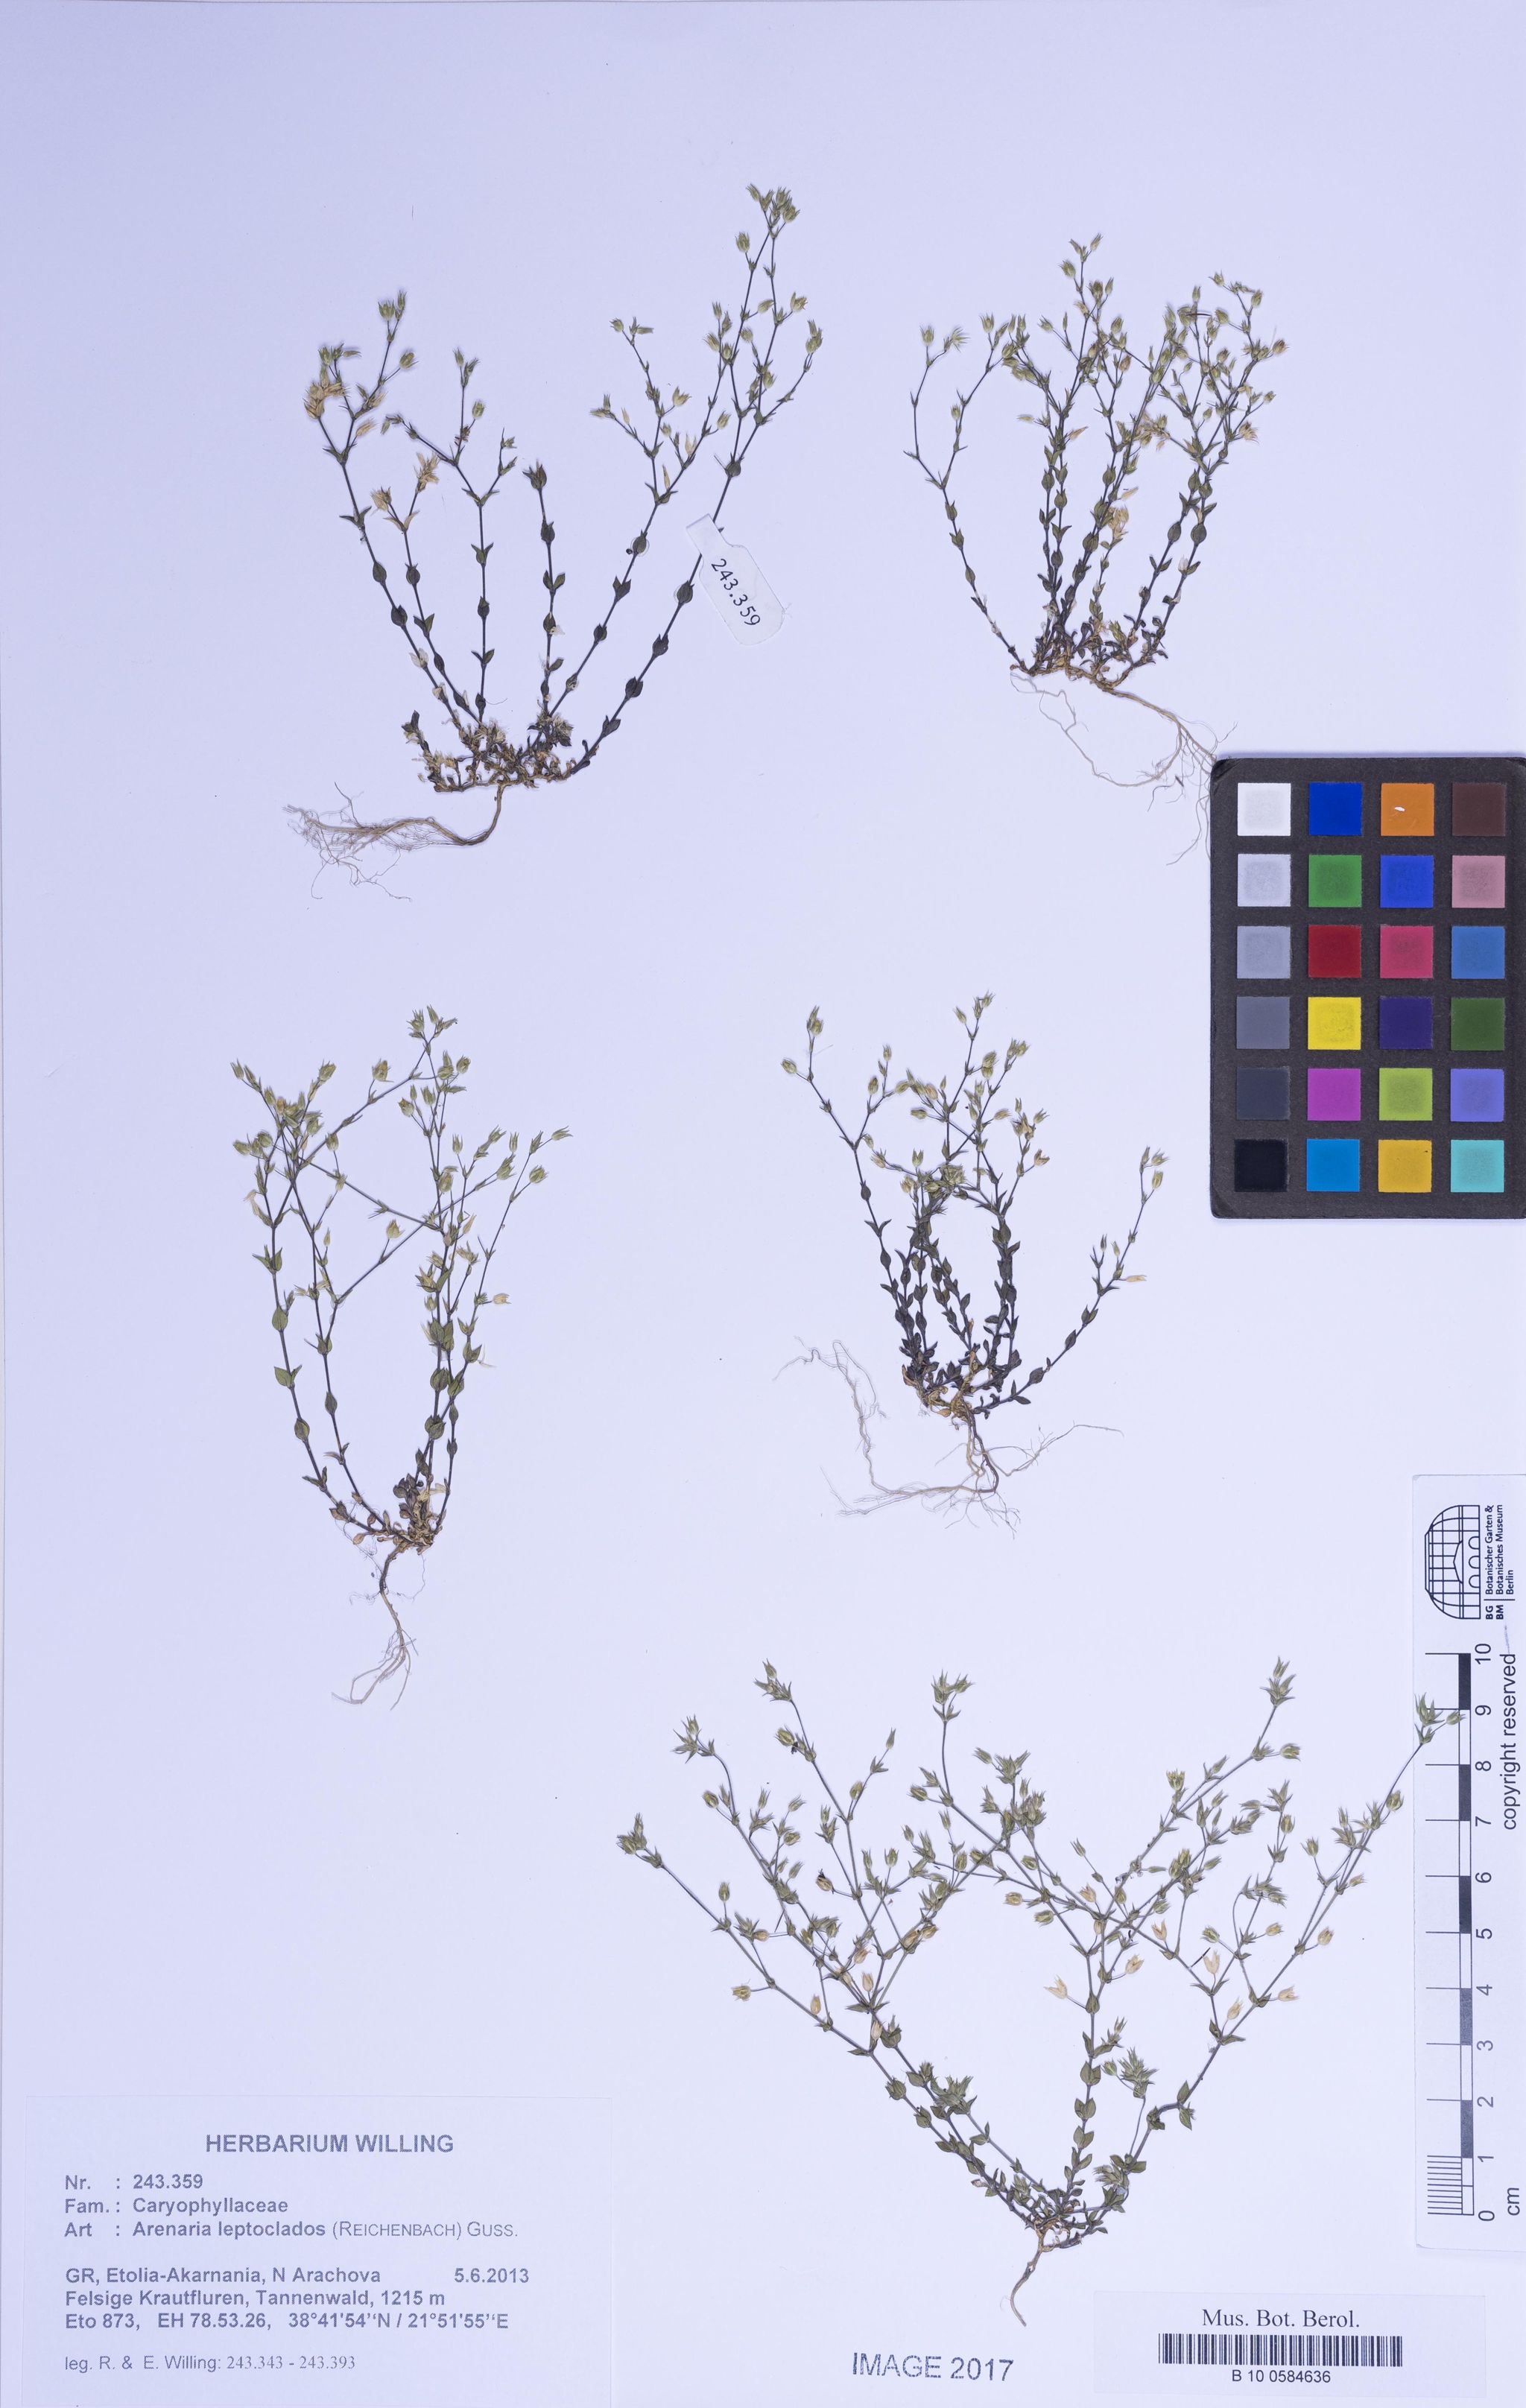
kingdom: Plantae
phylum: Tracheophyta
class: Magnoliopsida
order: Caryophyllales
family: Caryophyllaceae
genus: Arenaria
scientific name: Arenaria leptoclados
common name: Thyme-leaved sandwort
